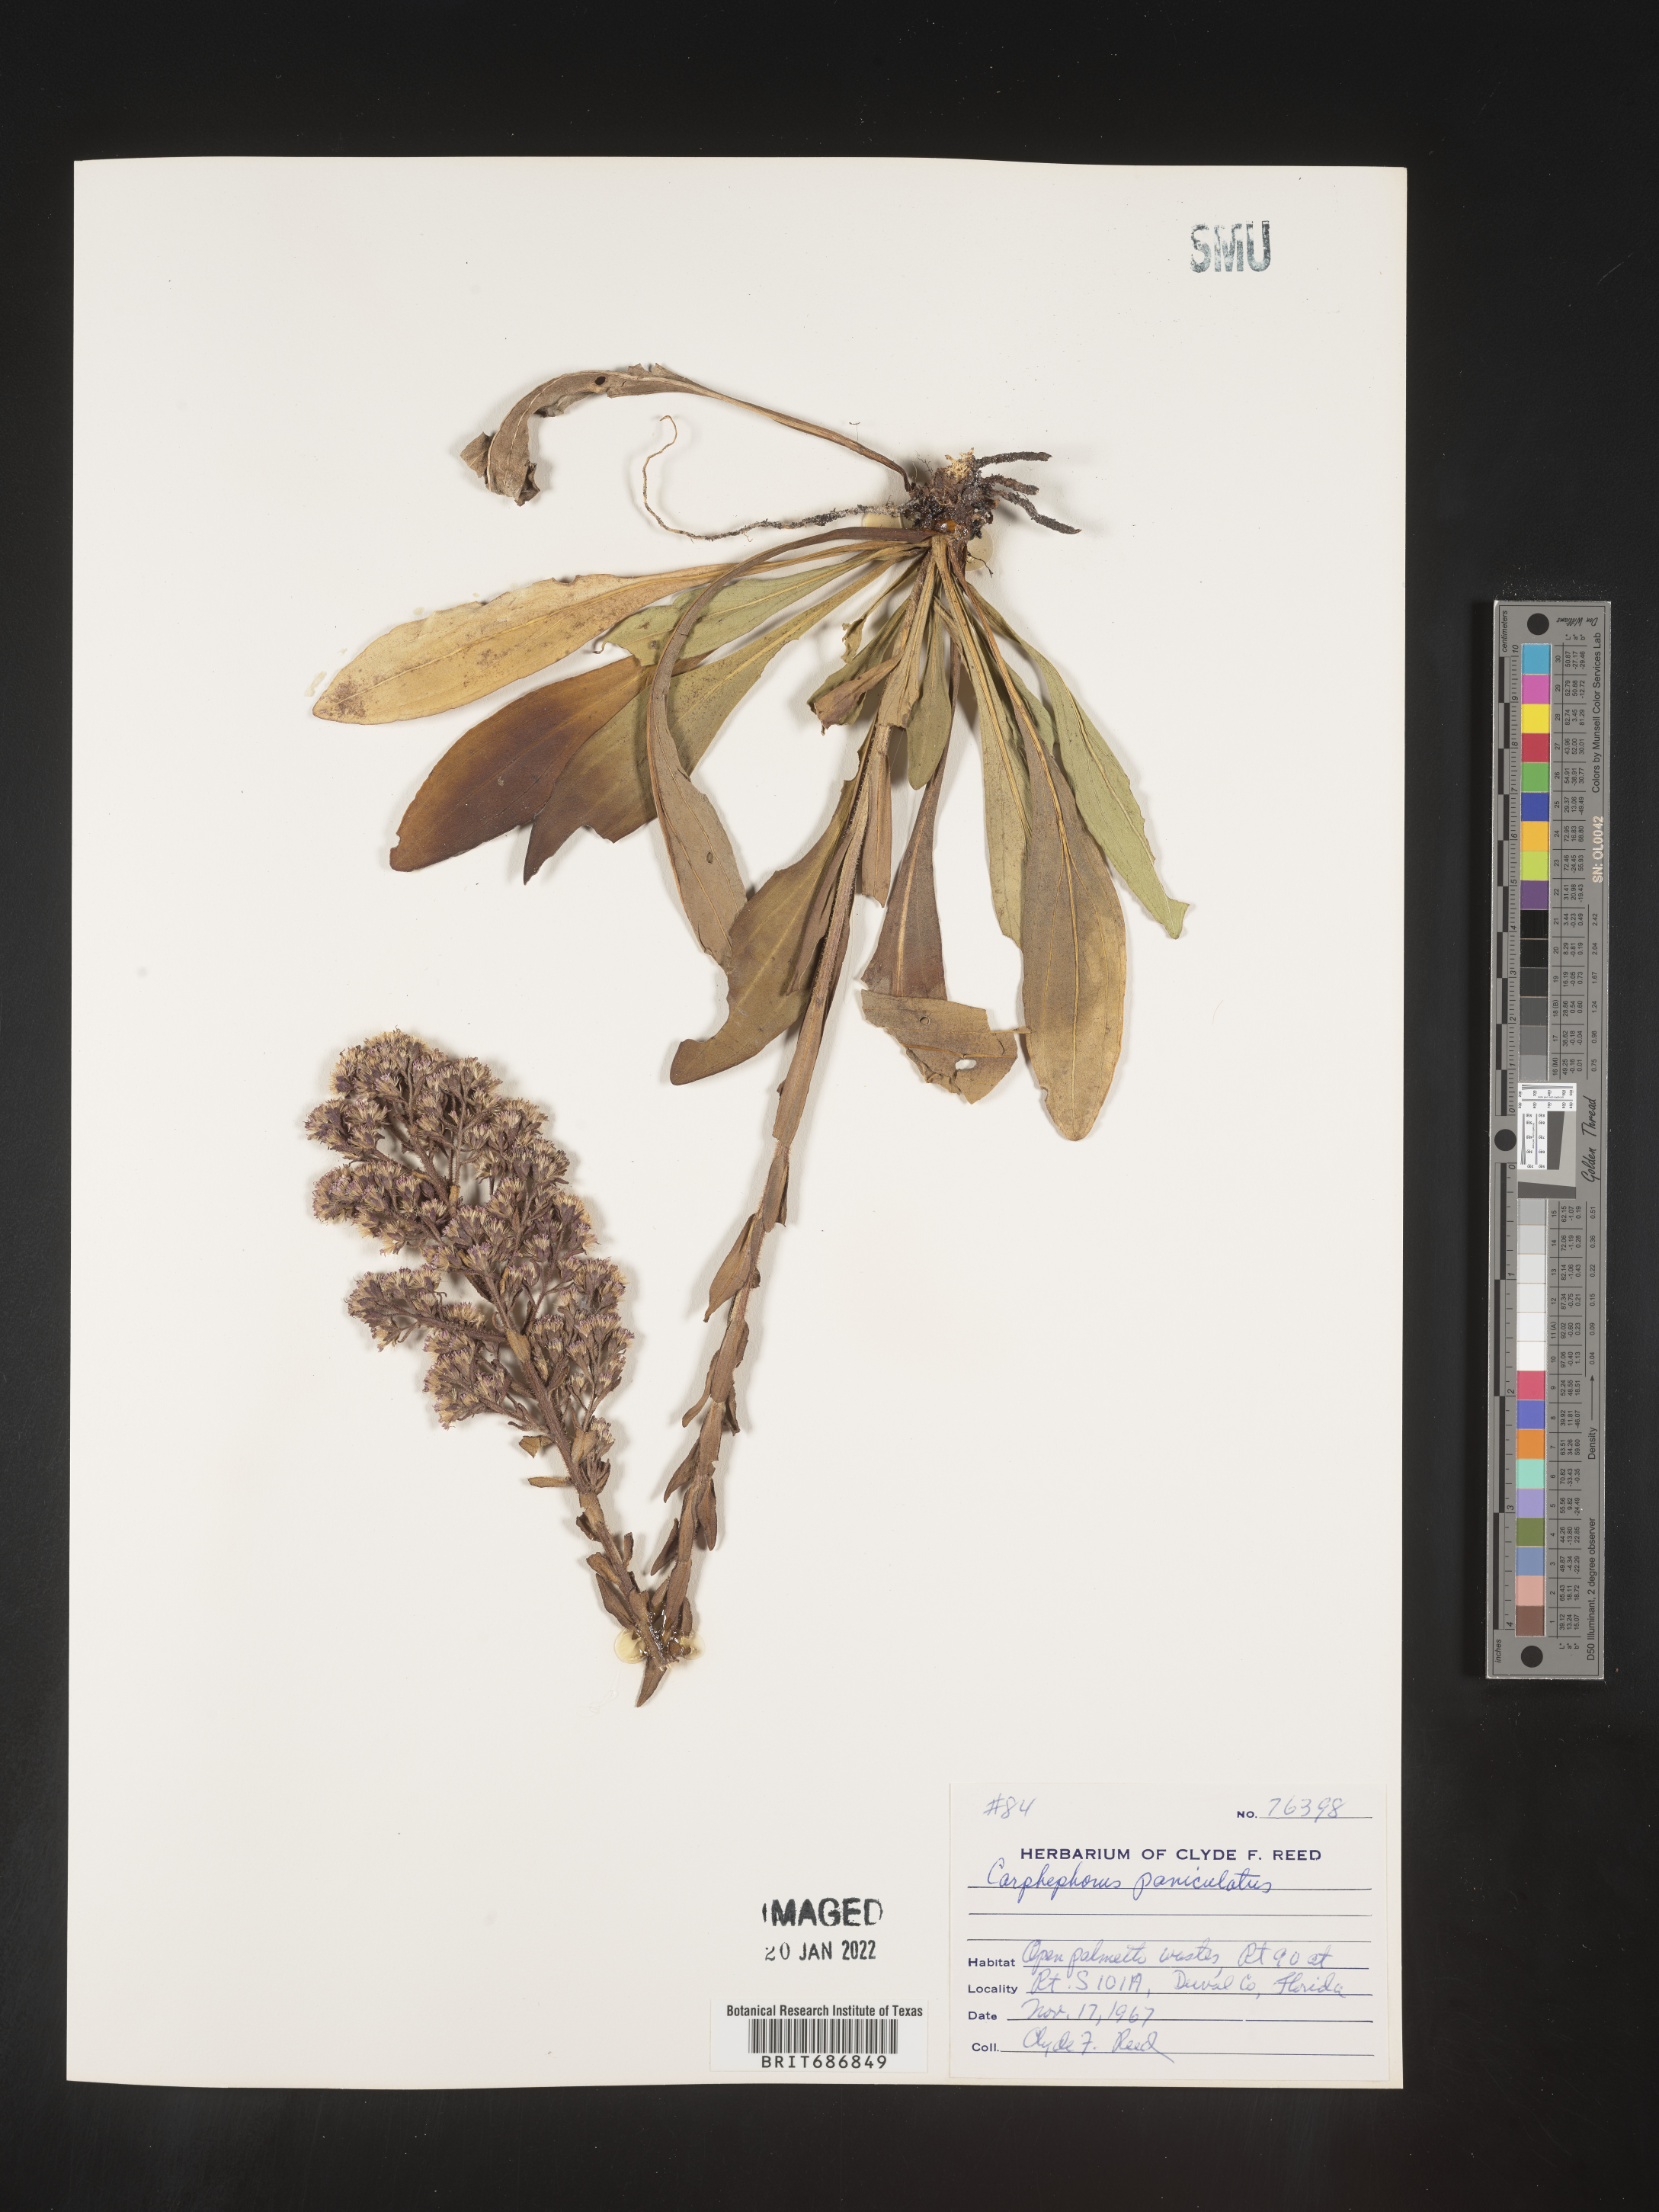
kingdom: Plantae
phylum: Tracheophyta
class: Magnoliopsida
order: Asterales
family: Asteraceae
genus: Carphephorus
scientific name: Carphephorus paniculatus
